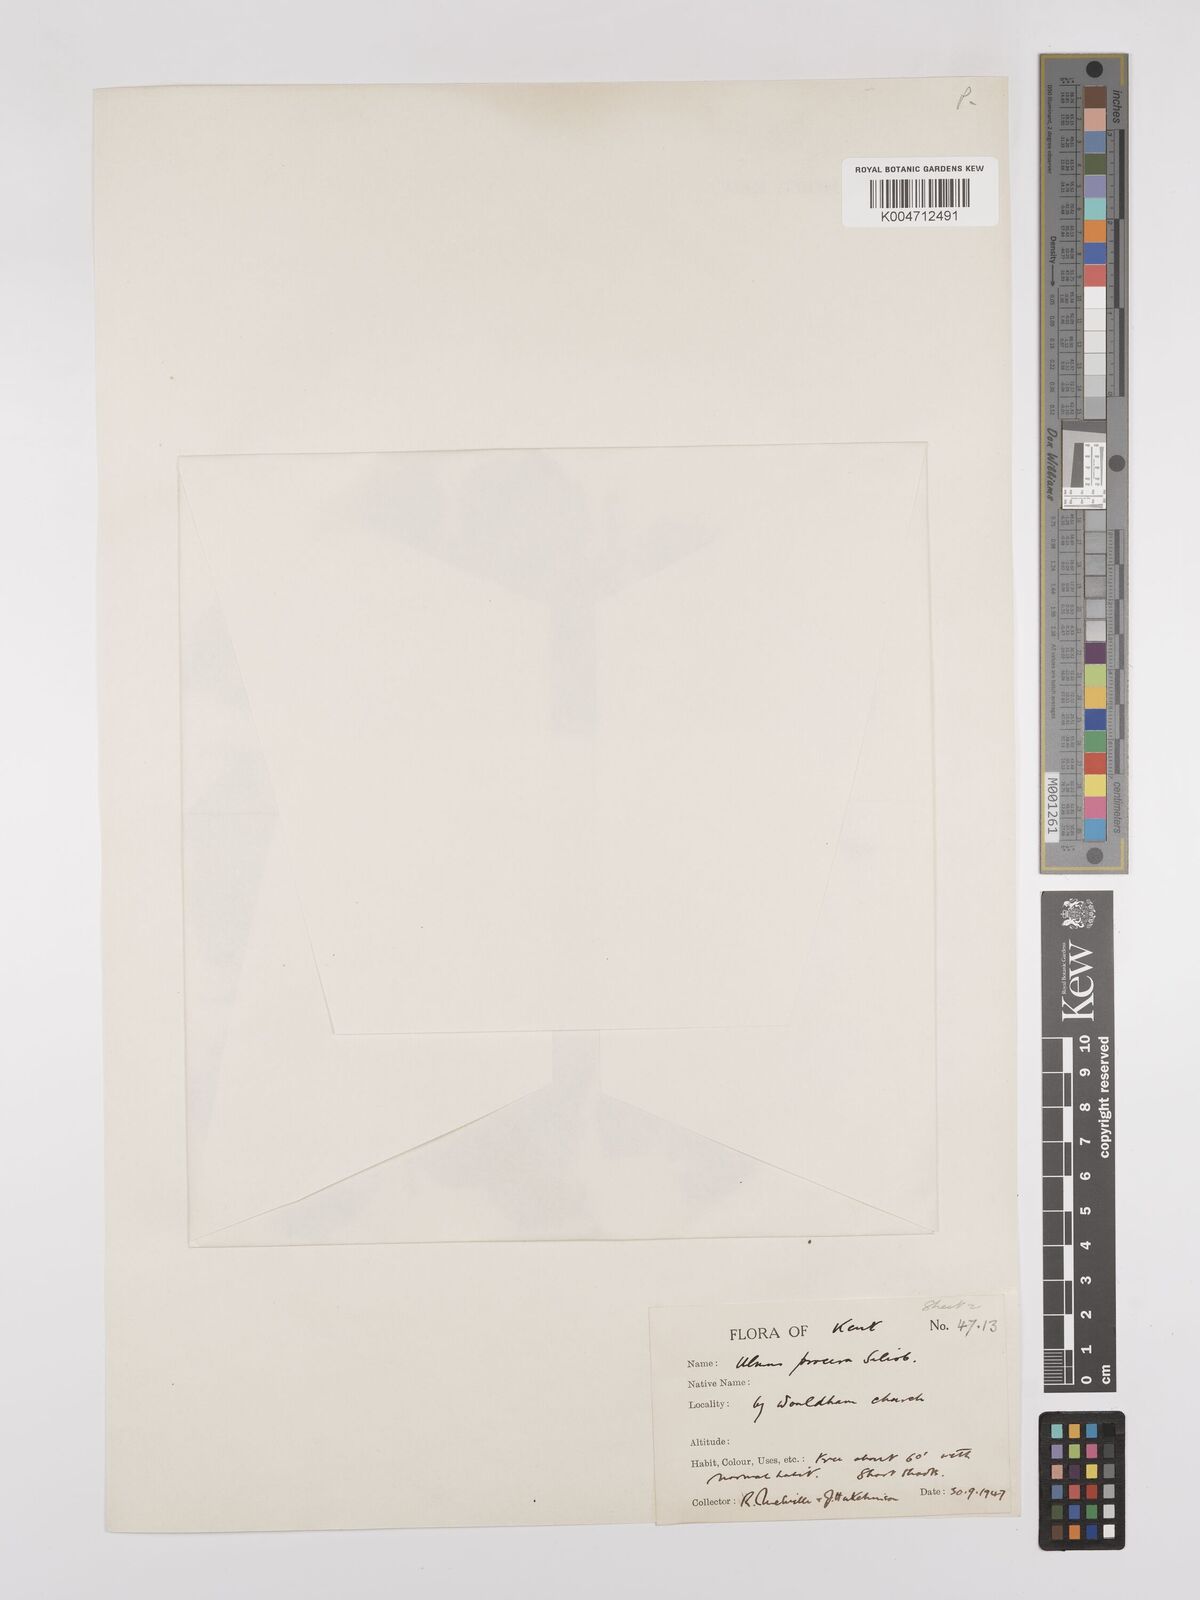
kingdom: Plantae
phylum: Tracheophyta
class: Magnoliopsida
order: Rosales
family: Ulmaceae
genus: Ulmus
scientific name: Ulmus minor
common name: Small-leaved elm
